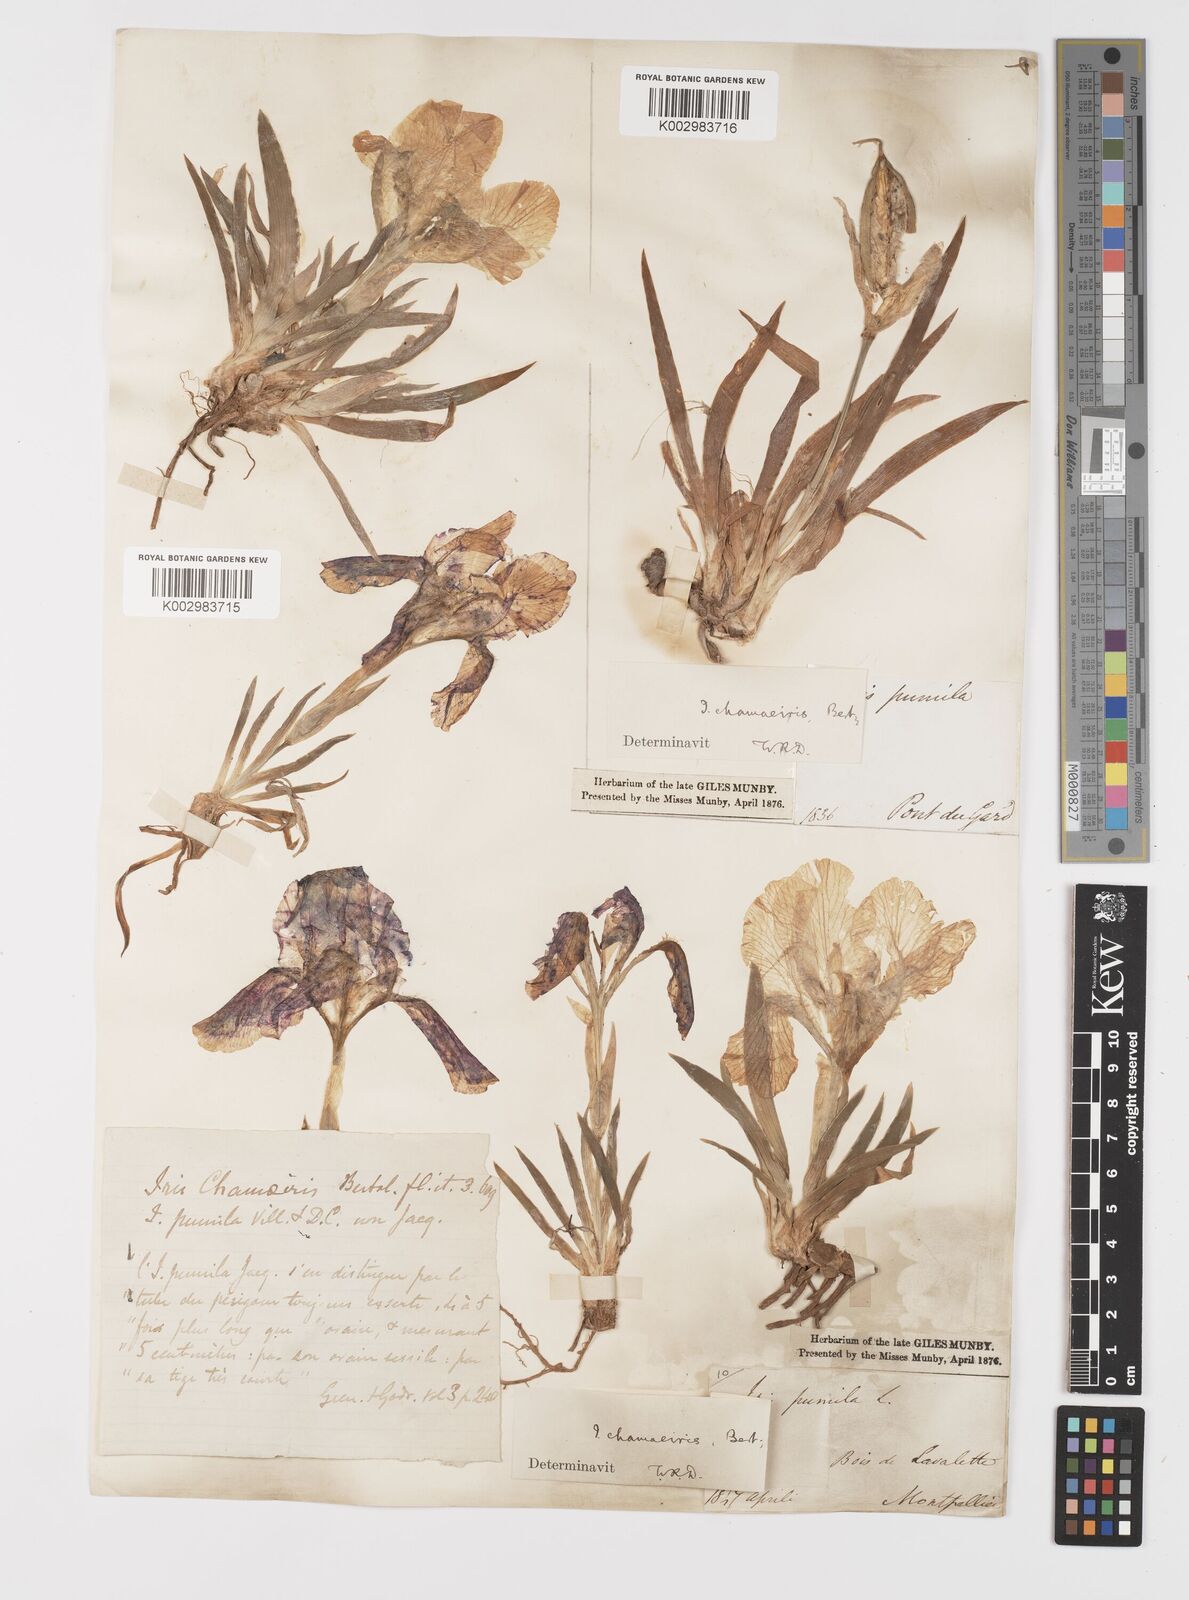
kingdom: Plantae
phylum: Tracheophyta
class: Liliopsida
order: Asparagales
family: Iridaceae
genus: Iris
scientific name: Iris lutescens
